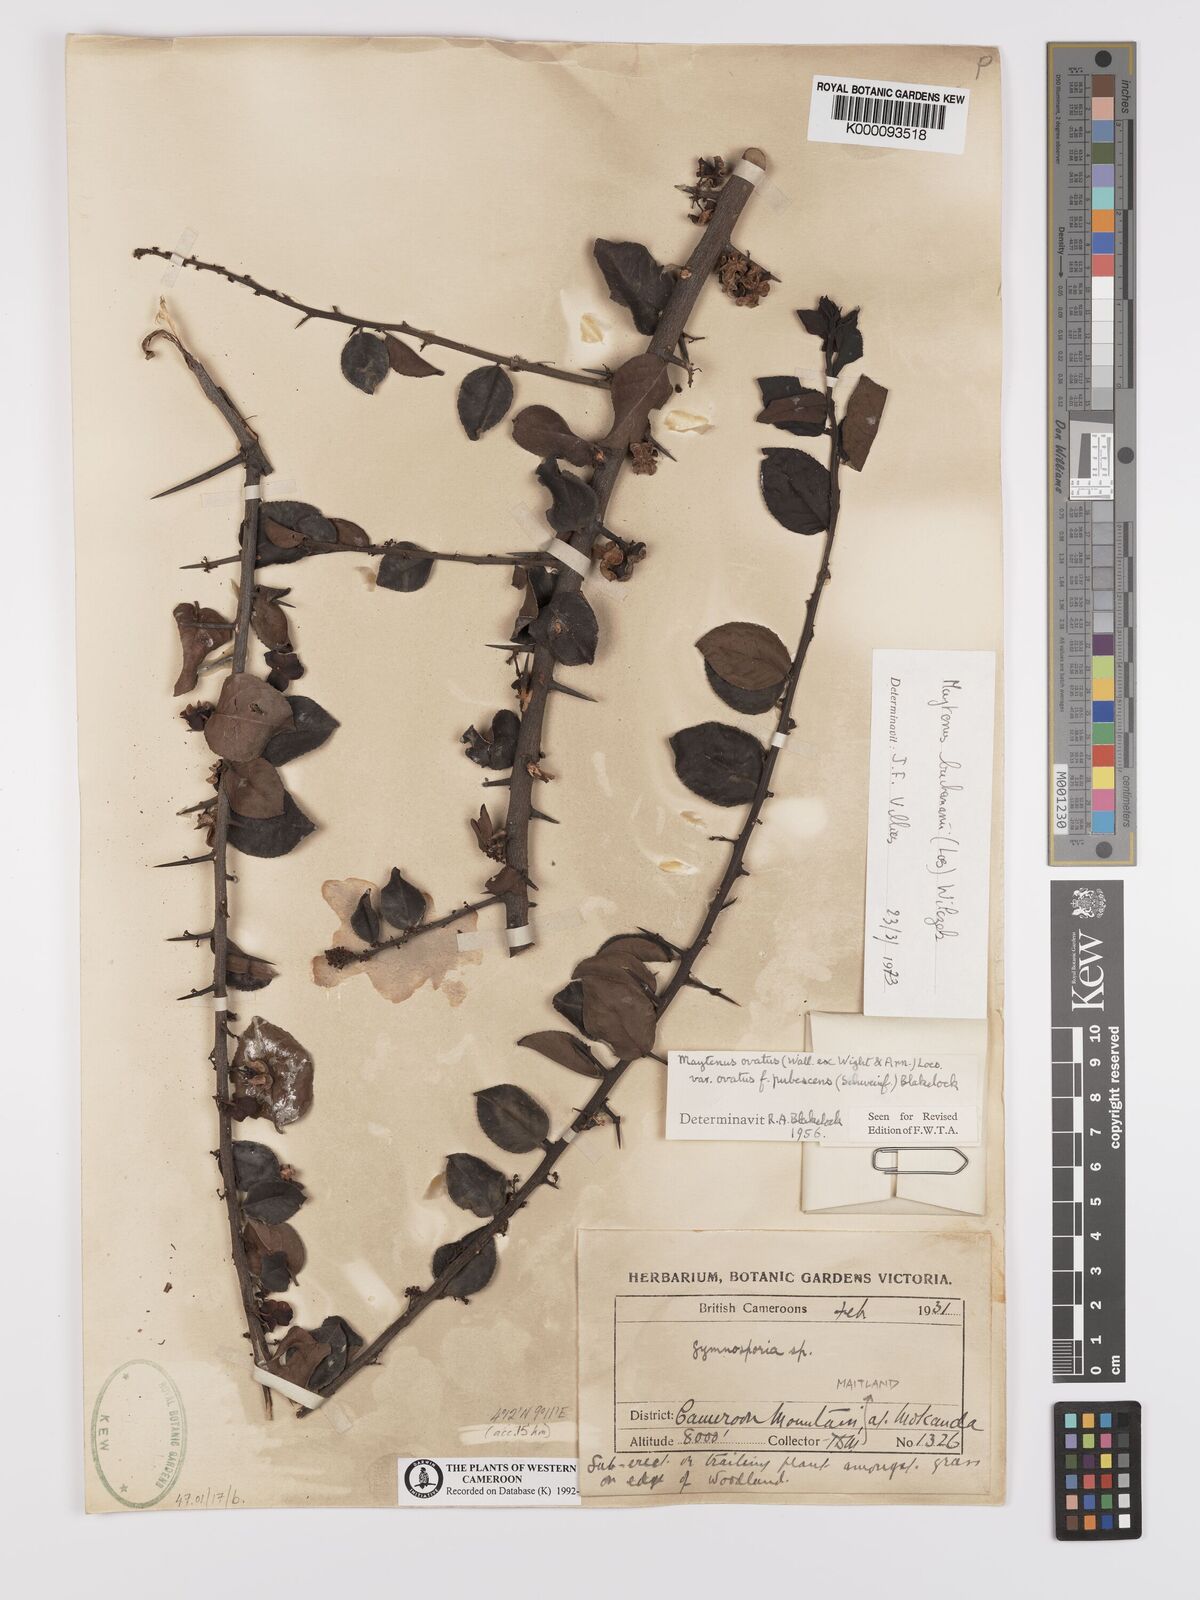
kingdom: Plantae
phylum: Tracheophyta
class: Magnoliopsida
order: Celastrales
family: Celastraceae
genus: Gymnosporia
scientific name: Gymnosporia buchananii
